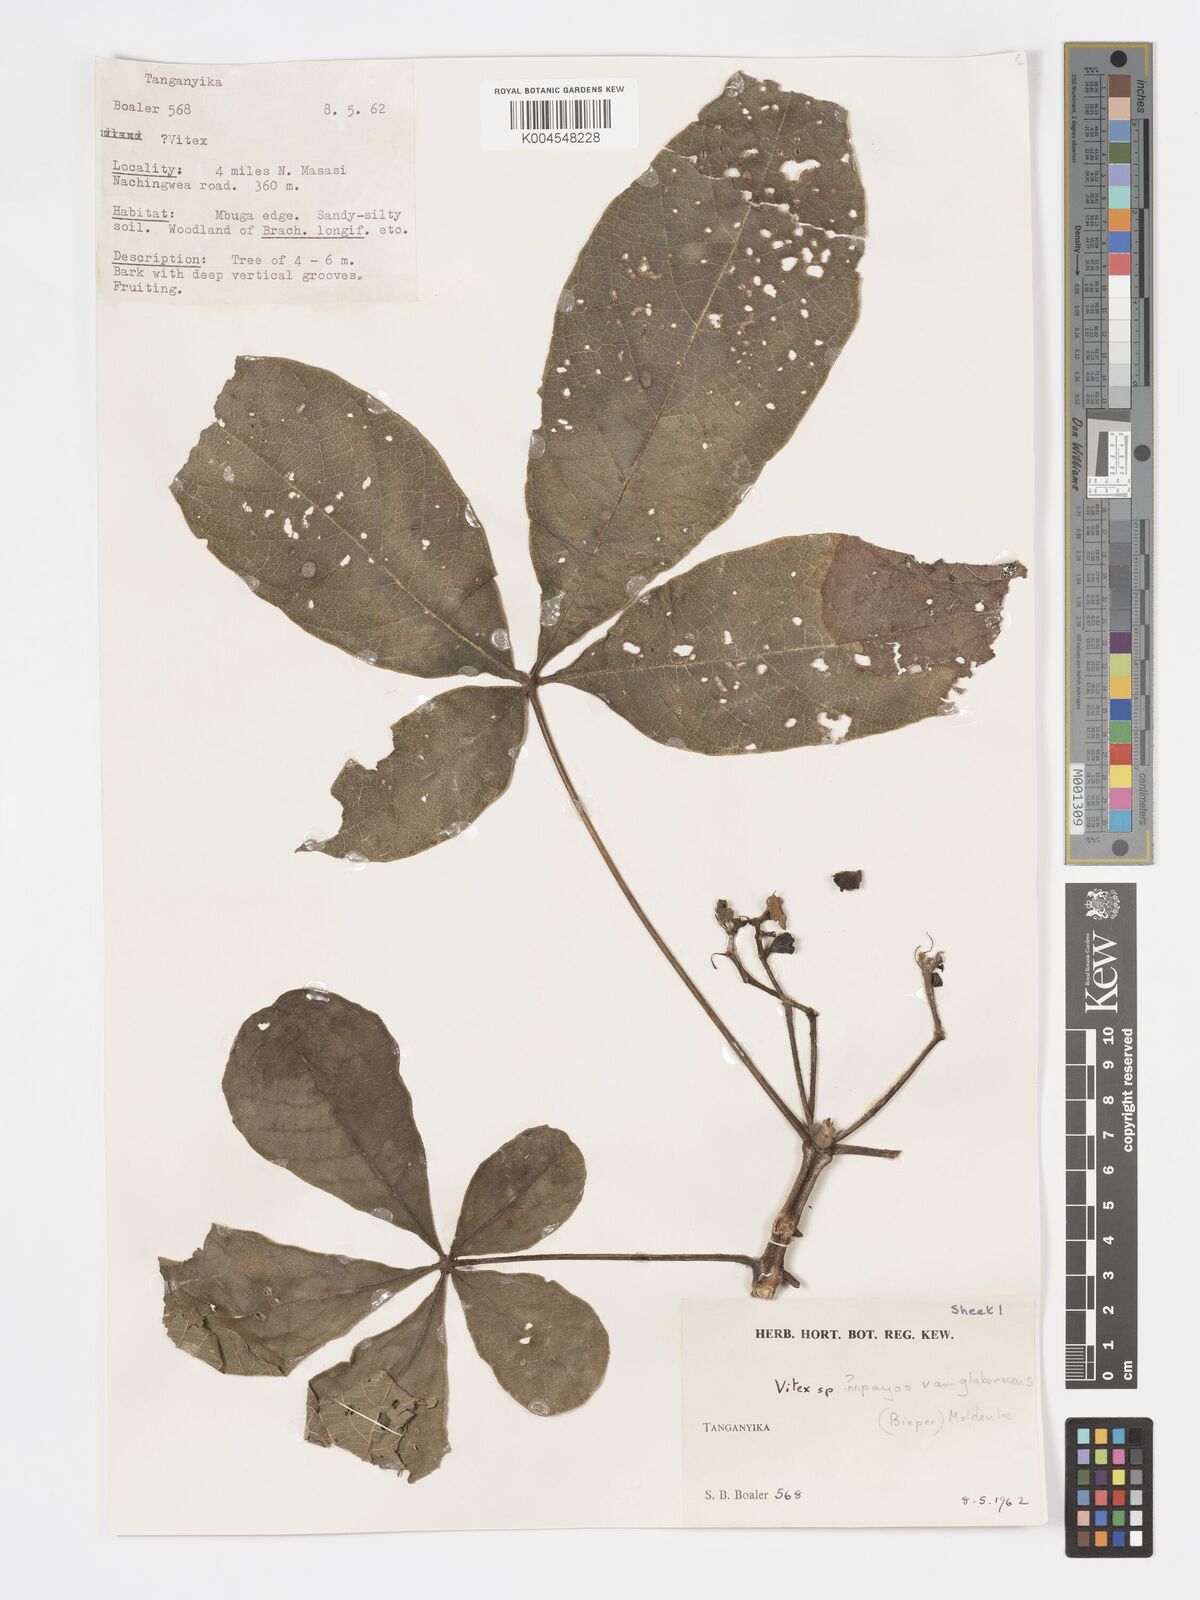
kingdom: Plantae
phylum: Tracheophyta
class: Magnoliopsida
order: Lamiales
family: Lamiaceae
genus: Vitex
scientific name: Vitex payos
